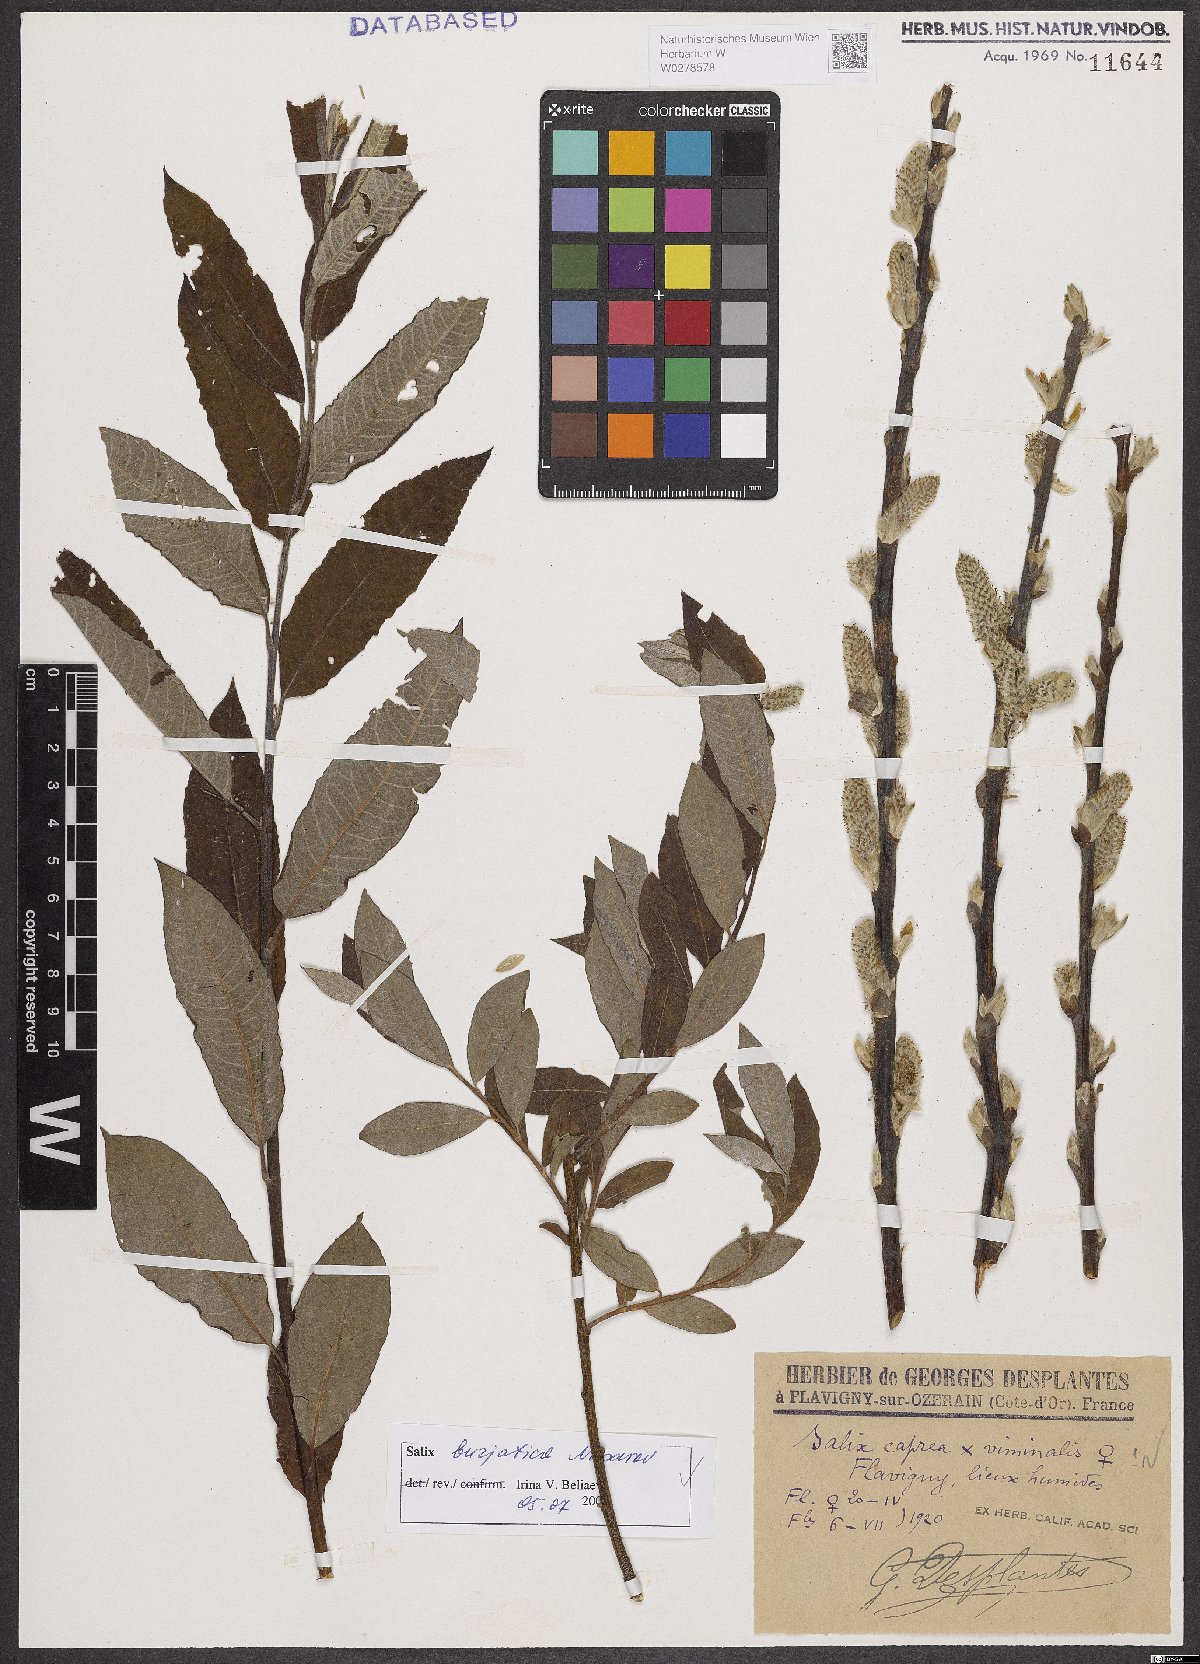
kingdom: Plantae
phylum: Tracheophyta
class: Magnoliopsida
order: Malpighiales
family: Salicaceae
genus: Salix
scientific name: Salix gmelinii
